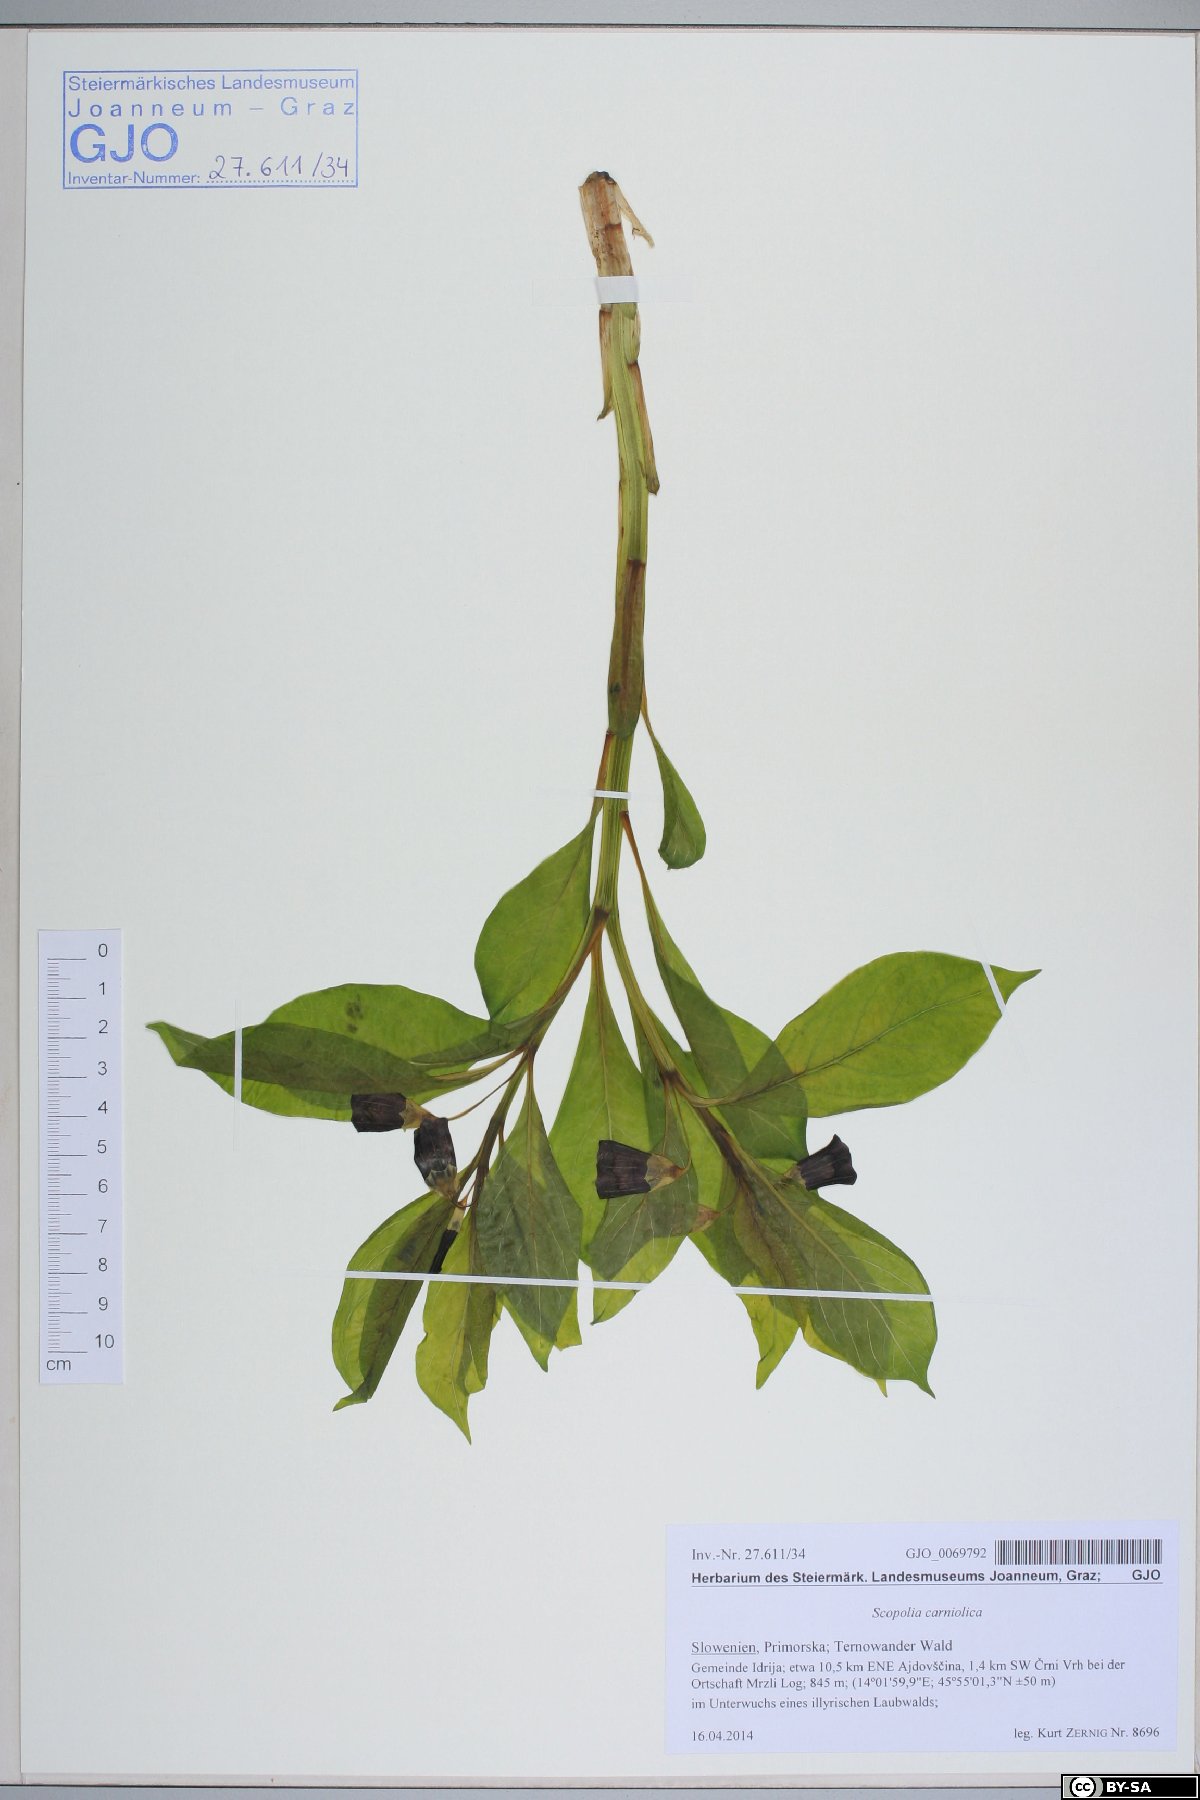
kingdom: Plantae
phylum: Tracheophyta
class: Magnoliopsida
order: Solanales
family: Solanaceae
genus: Scopolia
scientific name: Scopolia carniolica
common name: Scopolia
